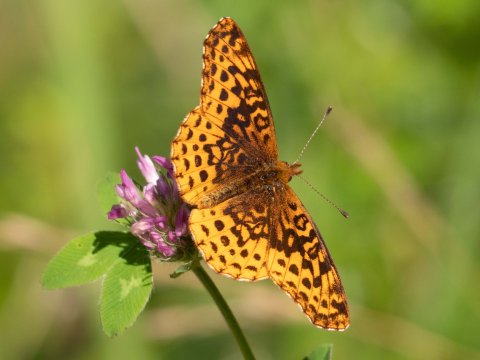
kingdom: Animalia
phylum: Arthropoda
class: Insecta
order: Lepidoptera
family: Nymphalidae
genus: Clossiana
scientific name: Clossiana toddi
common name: Meadow Fritillary
